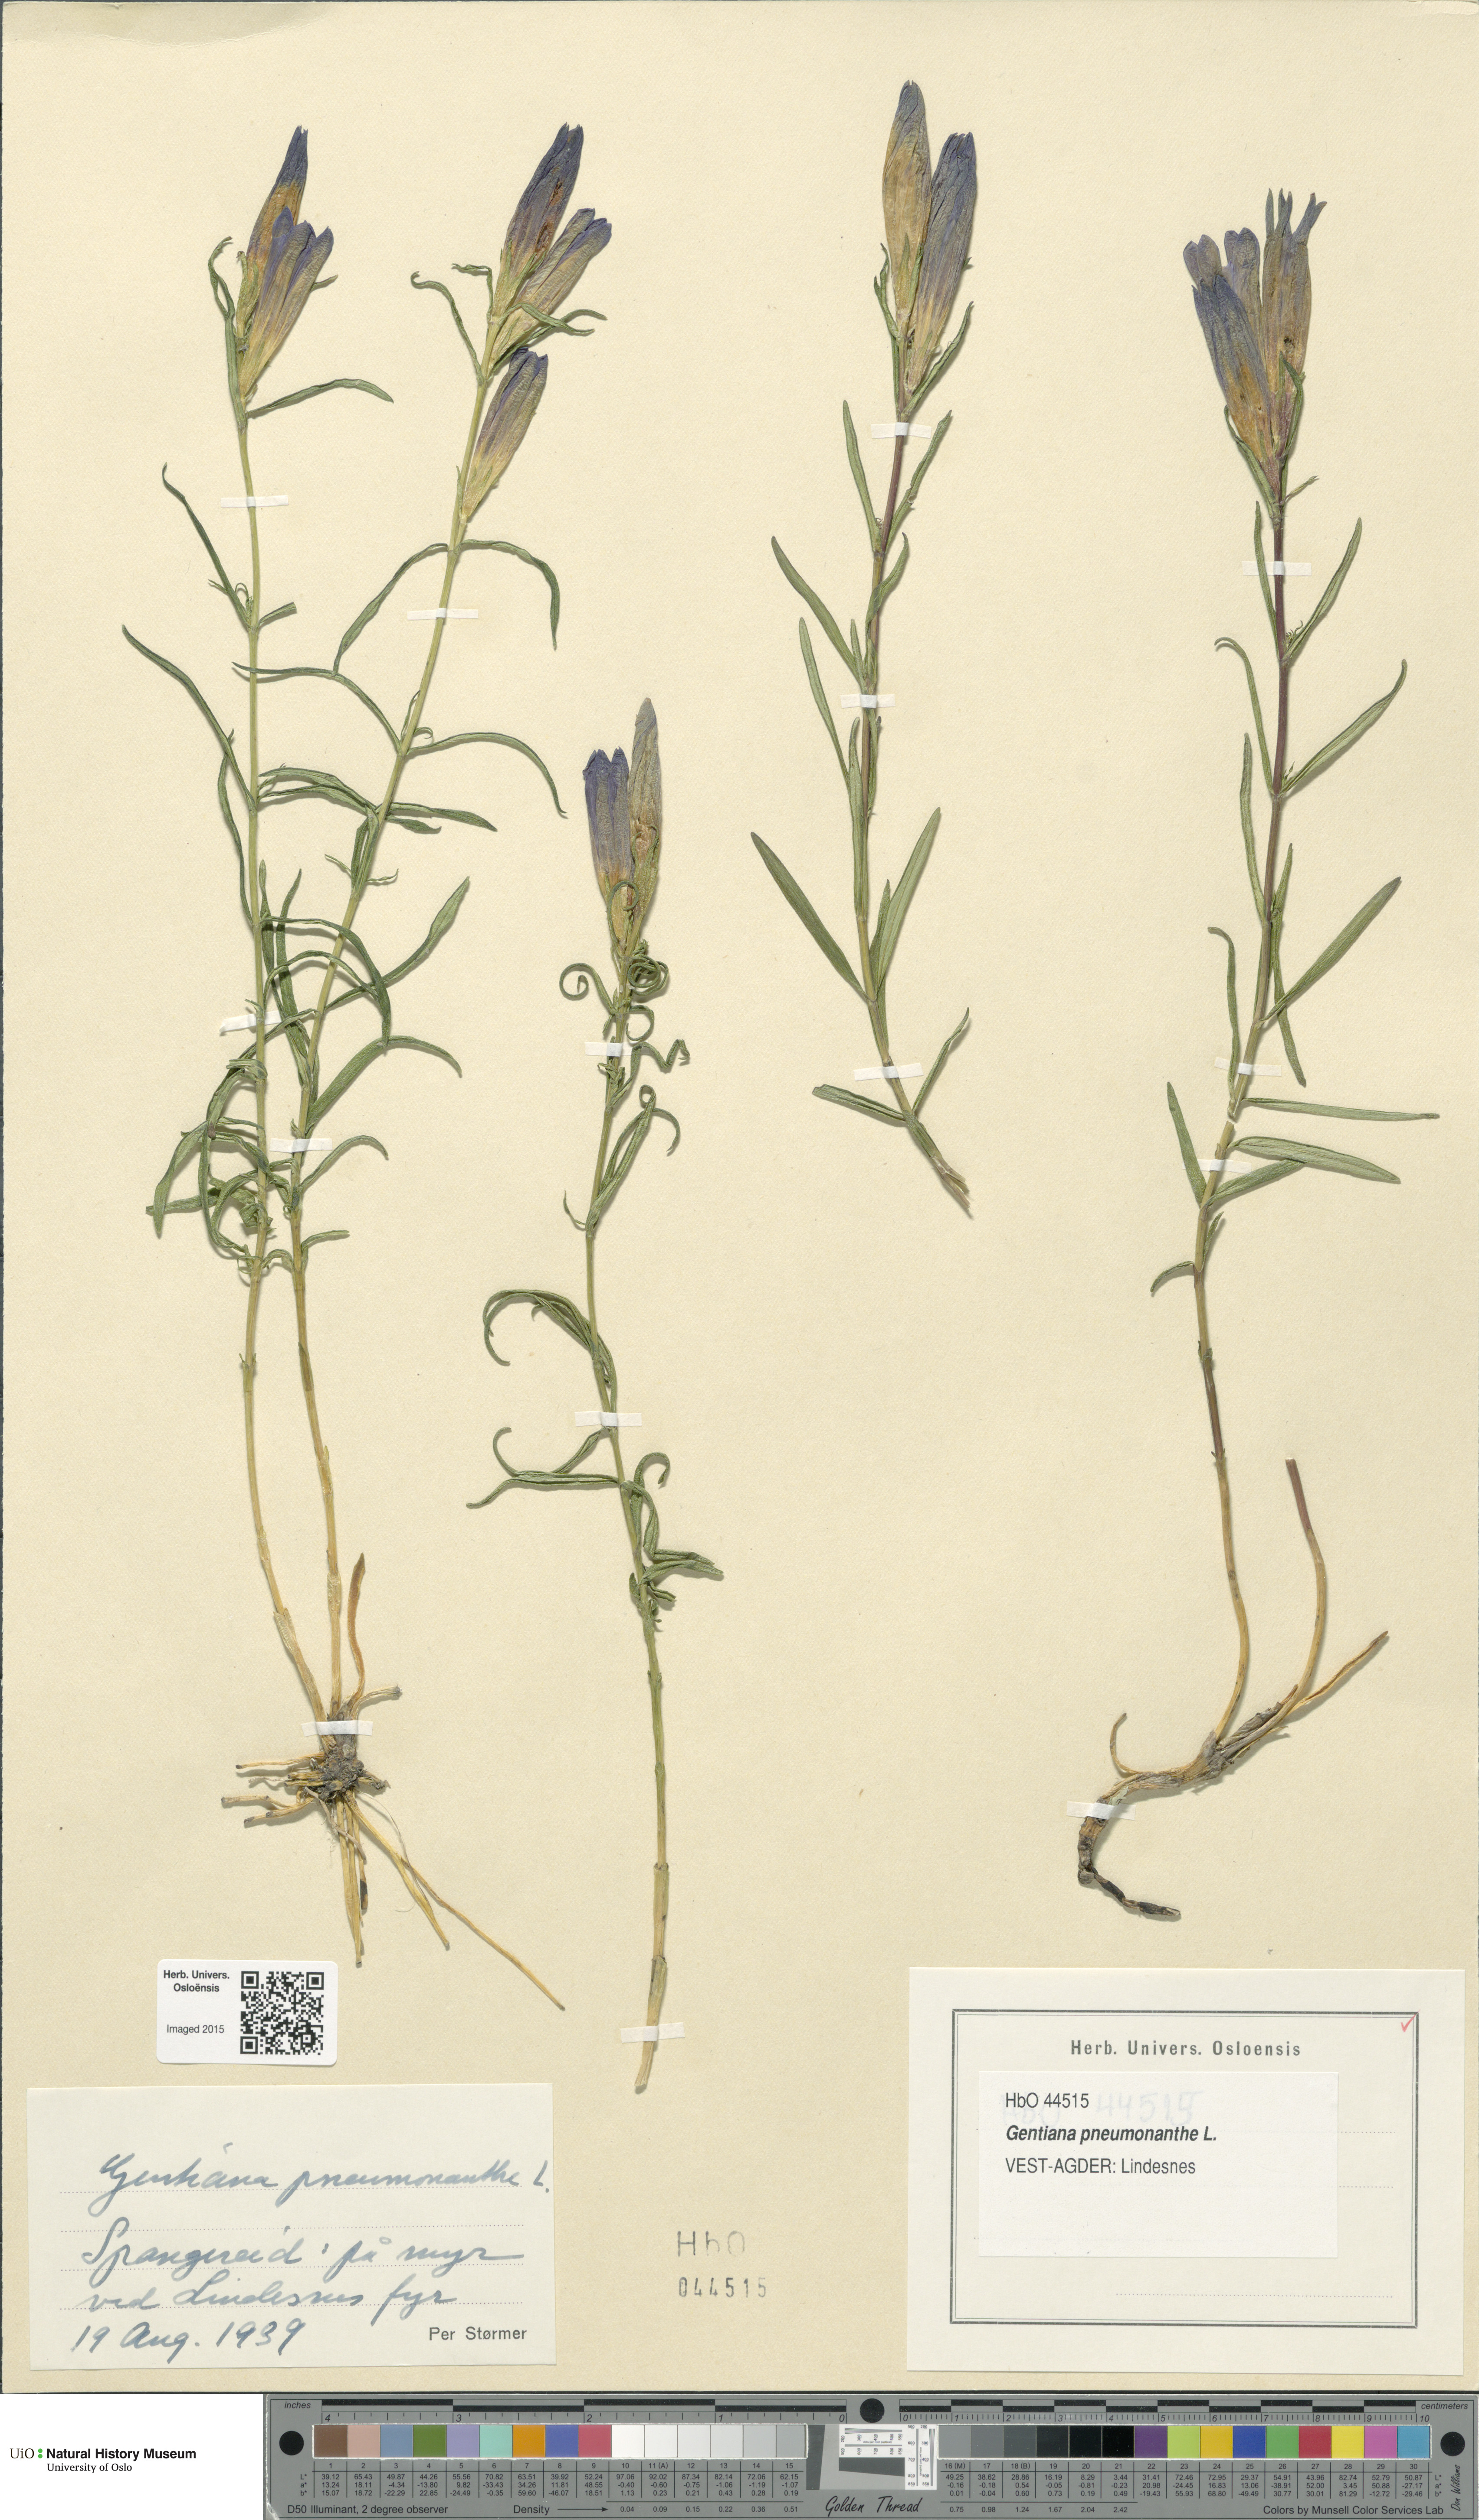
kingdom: Plantae
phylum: Tracheophyta
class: Magnoliopsida
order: Gentianales
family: Gentianaceae
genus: Gentiana
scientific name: Gentiana pneumonanthe
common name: Marsh gentian
